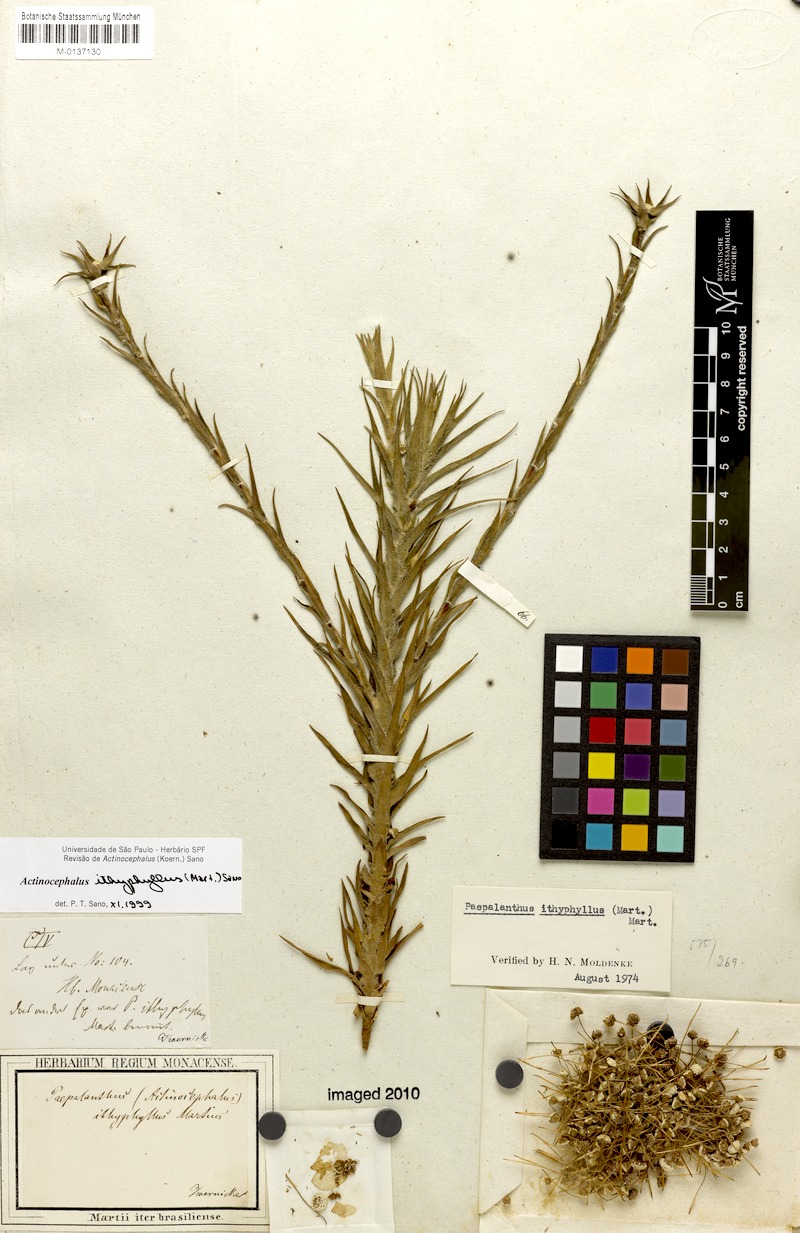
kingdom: Plantae
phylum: Tracheophyta
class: Liliopsida
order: Poales
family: Eriocaulaceae
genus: Paepalanthus
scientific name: Paepalanthus ithyphyllus
